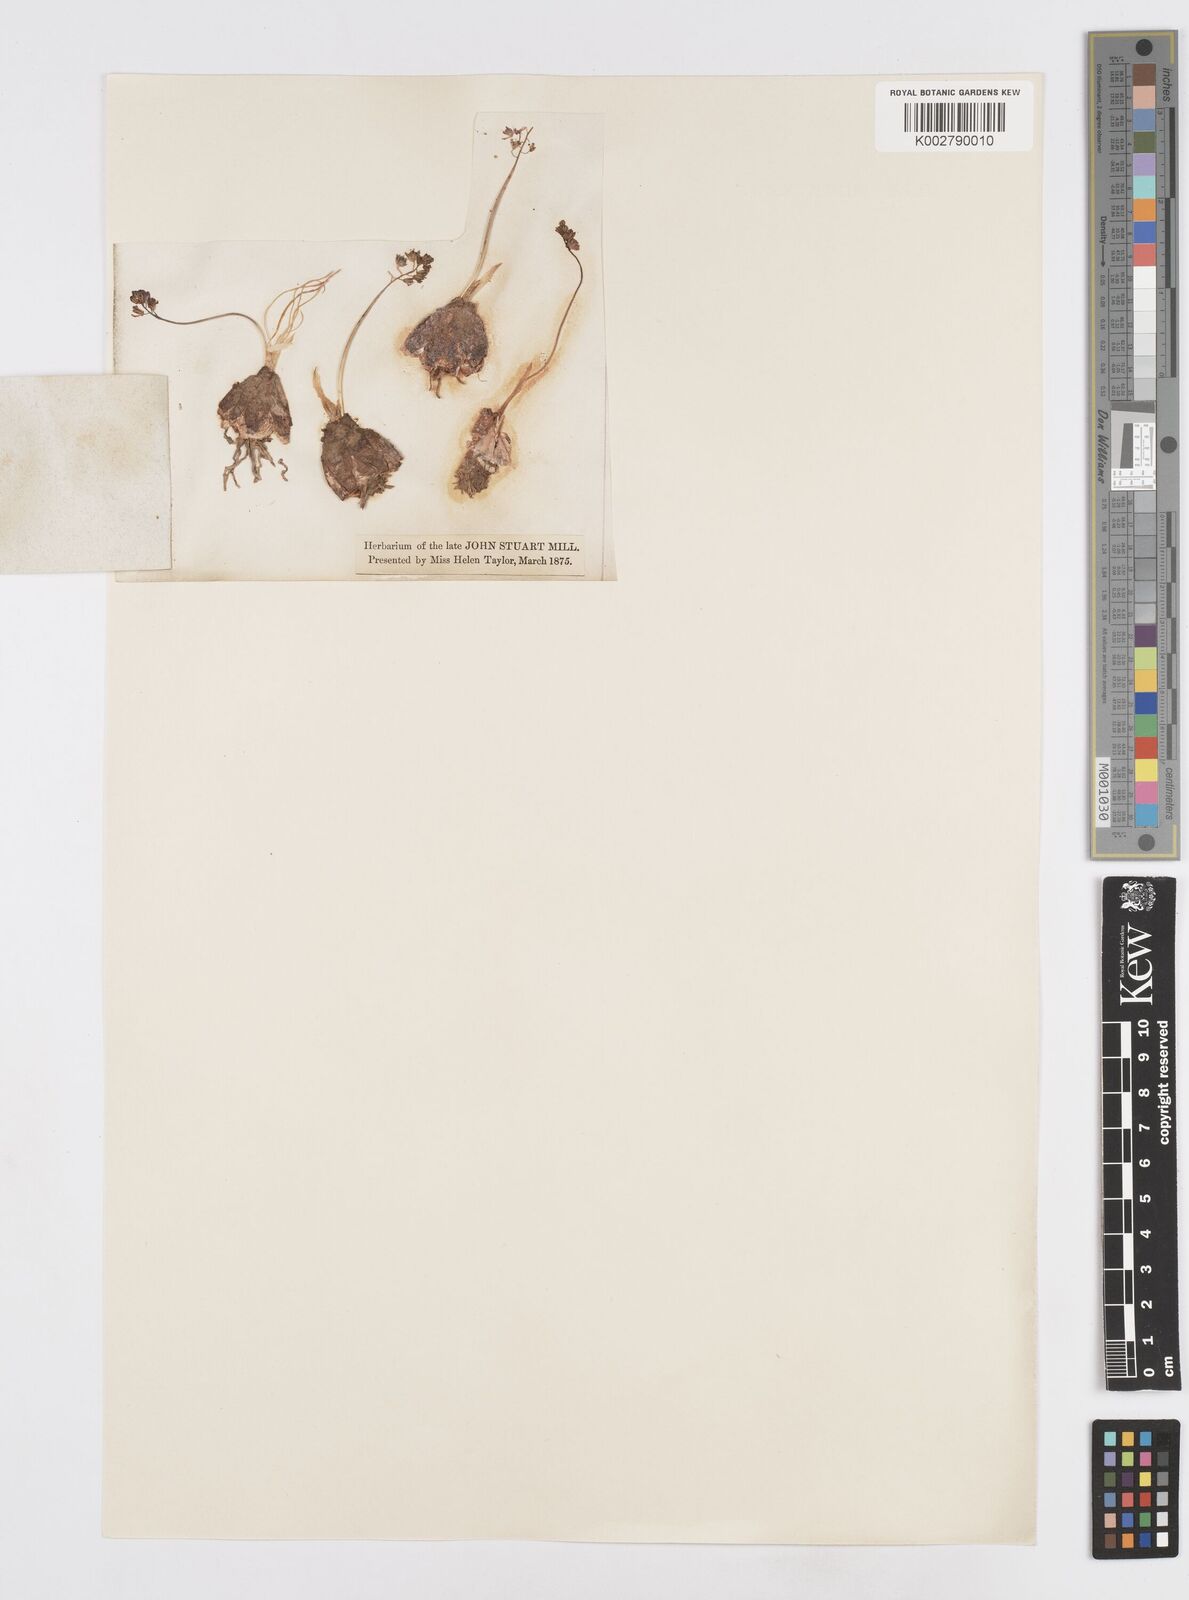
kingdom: Plantae
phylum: Tracheophyta
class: Liliopsida
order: Asparagales
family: Asparagaceae
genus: Prospero
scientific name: Prospero autumnale
